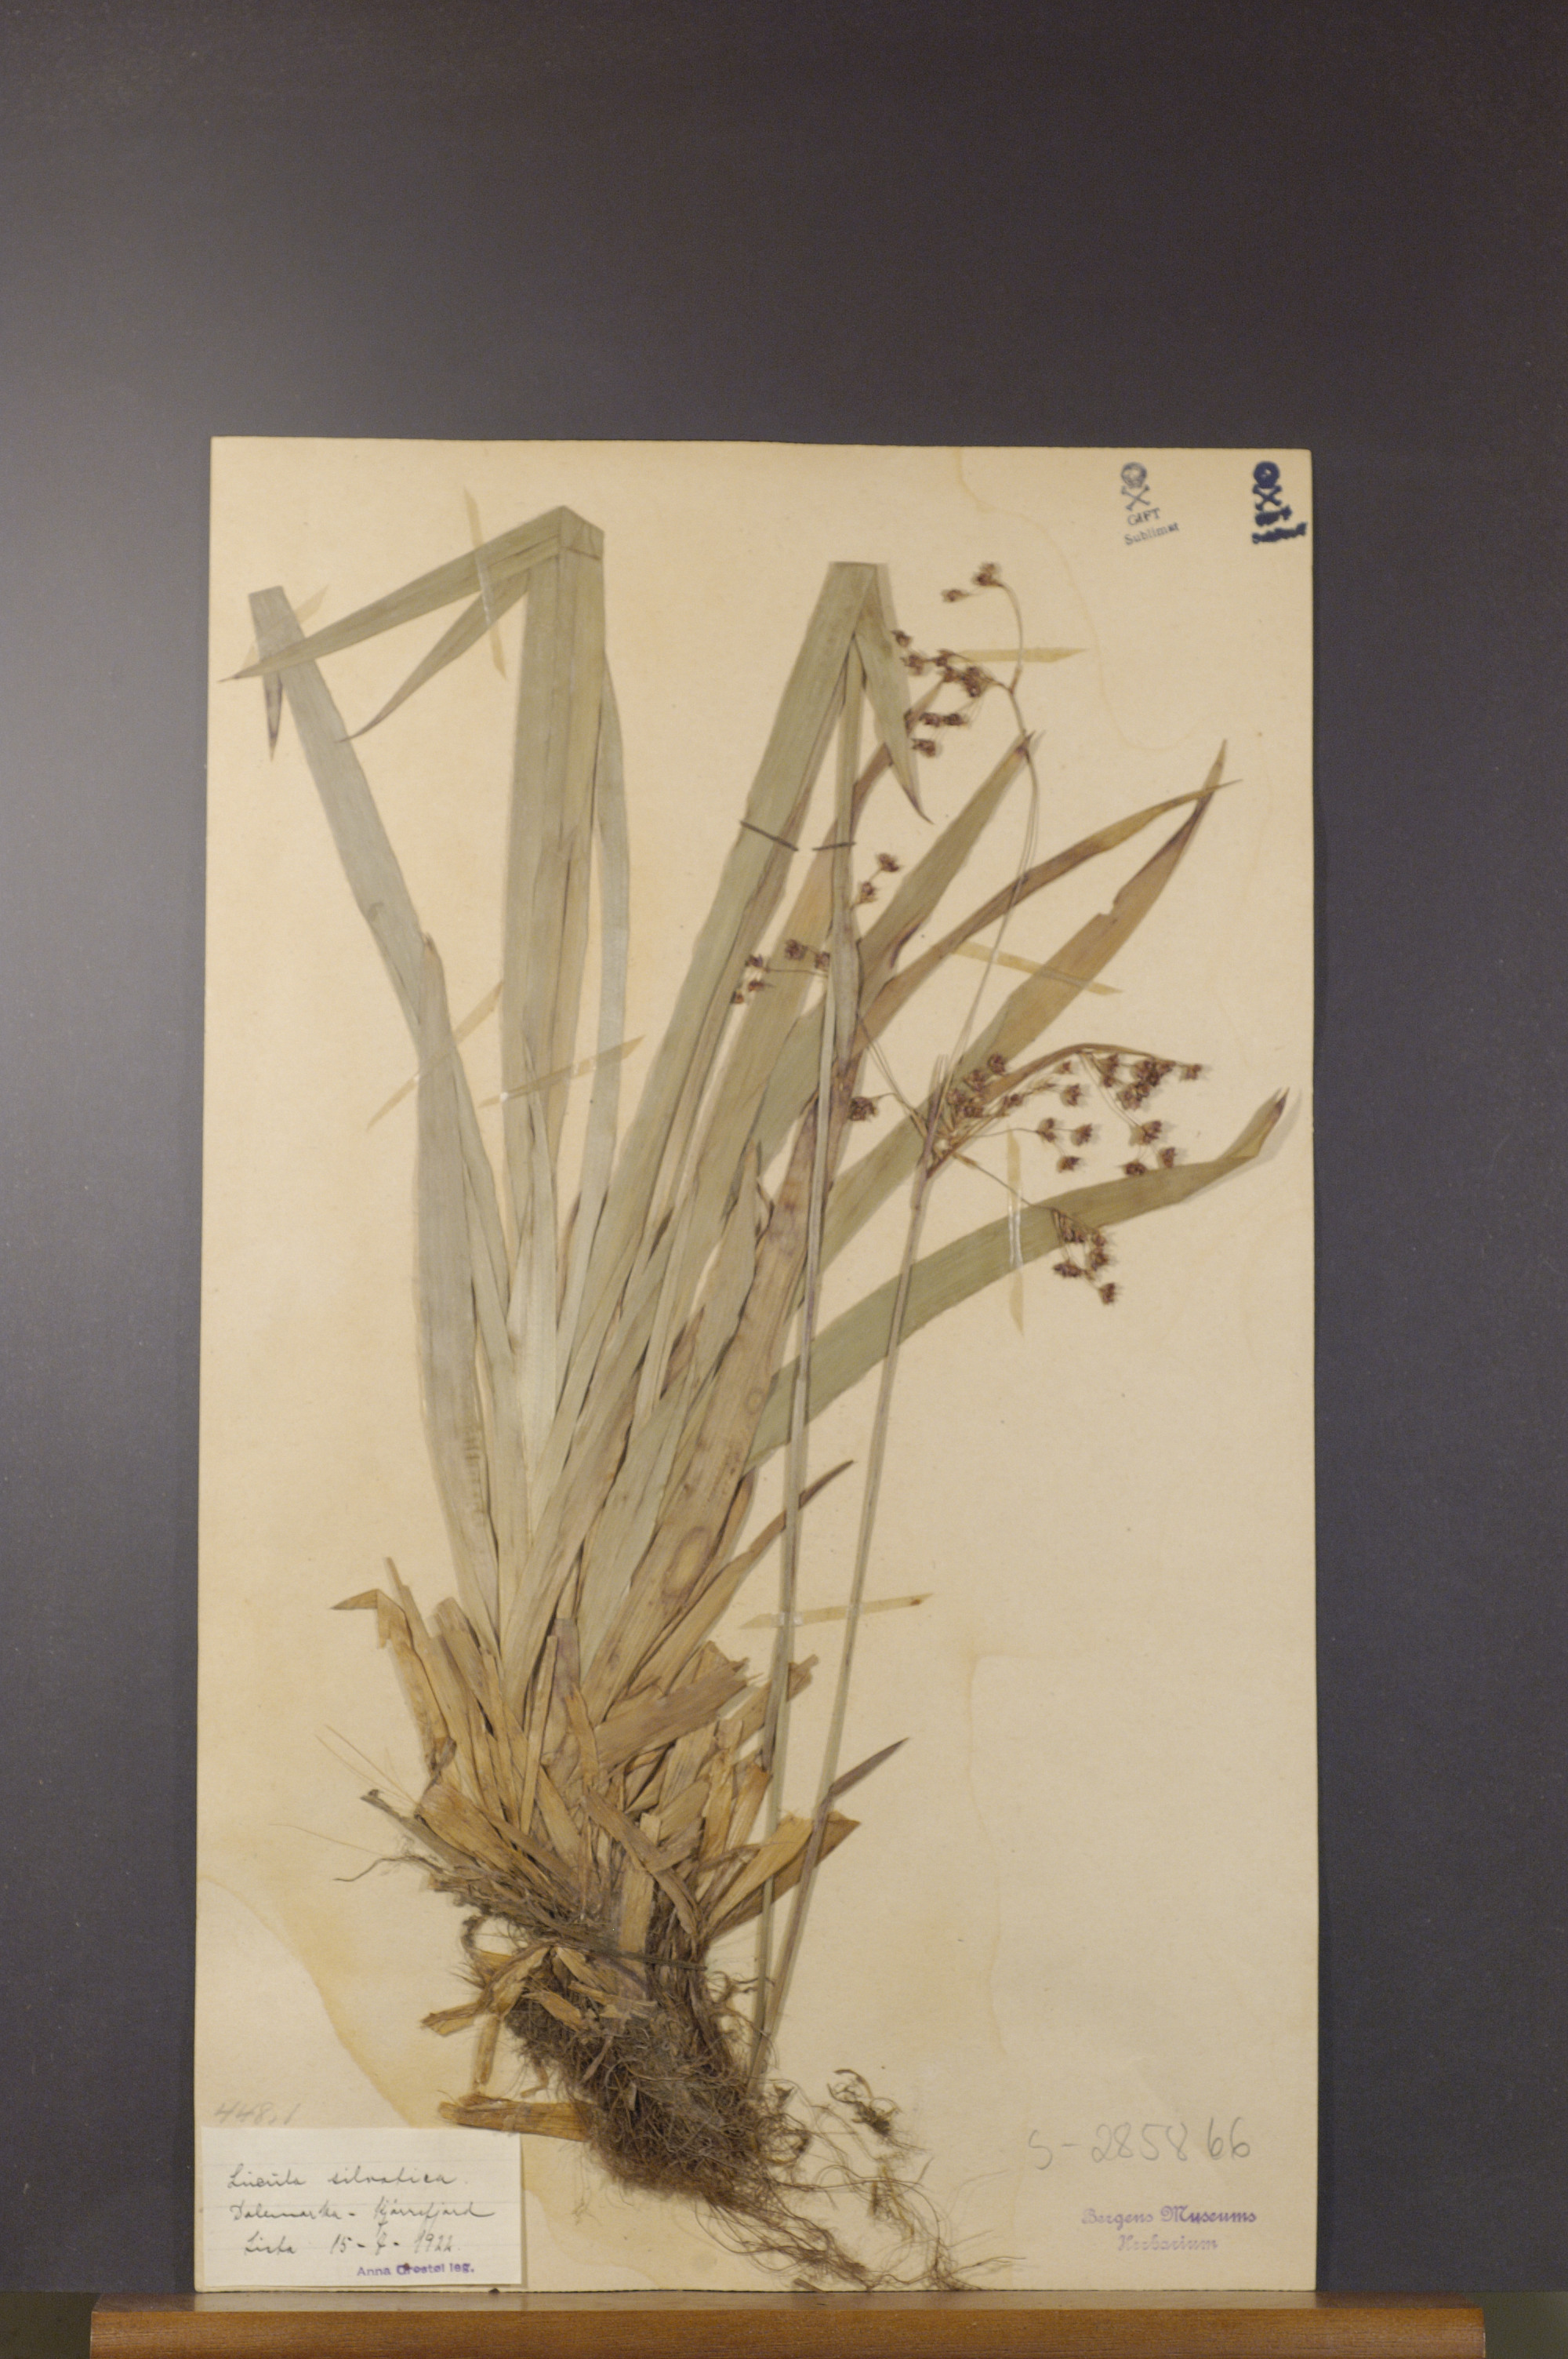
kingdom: Plantae
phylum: Tracheophyta
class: Liliopsida
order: Poales
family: Juncaceae
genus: Luzula
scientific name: Luzula sylvatica
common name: Great wood-rush
